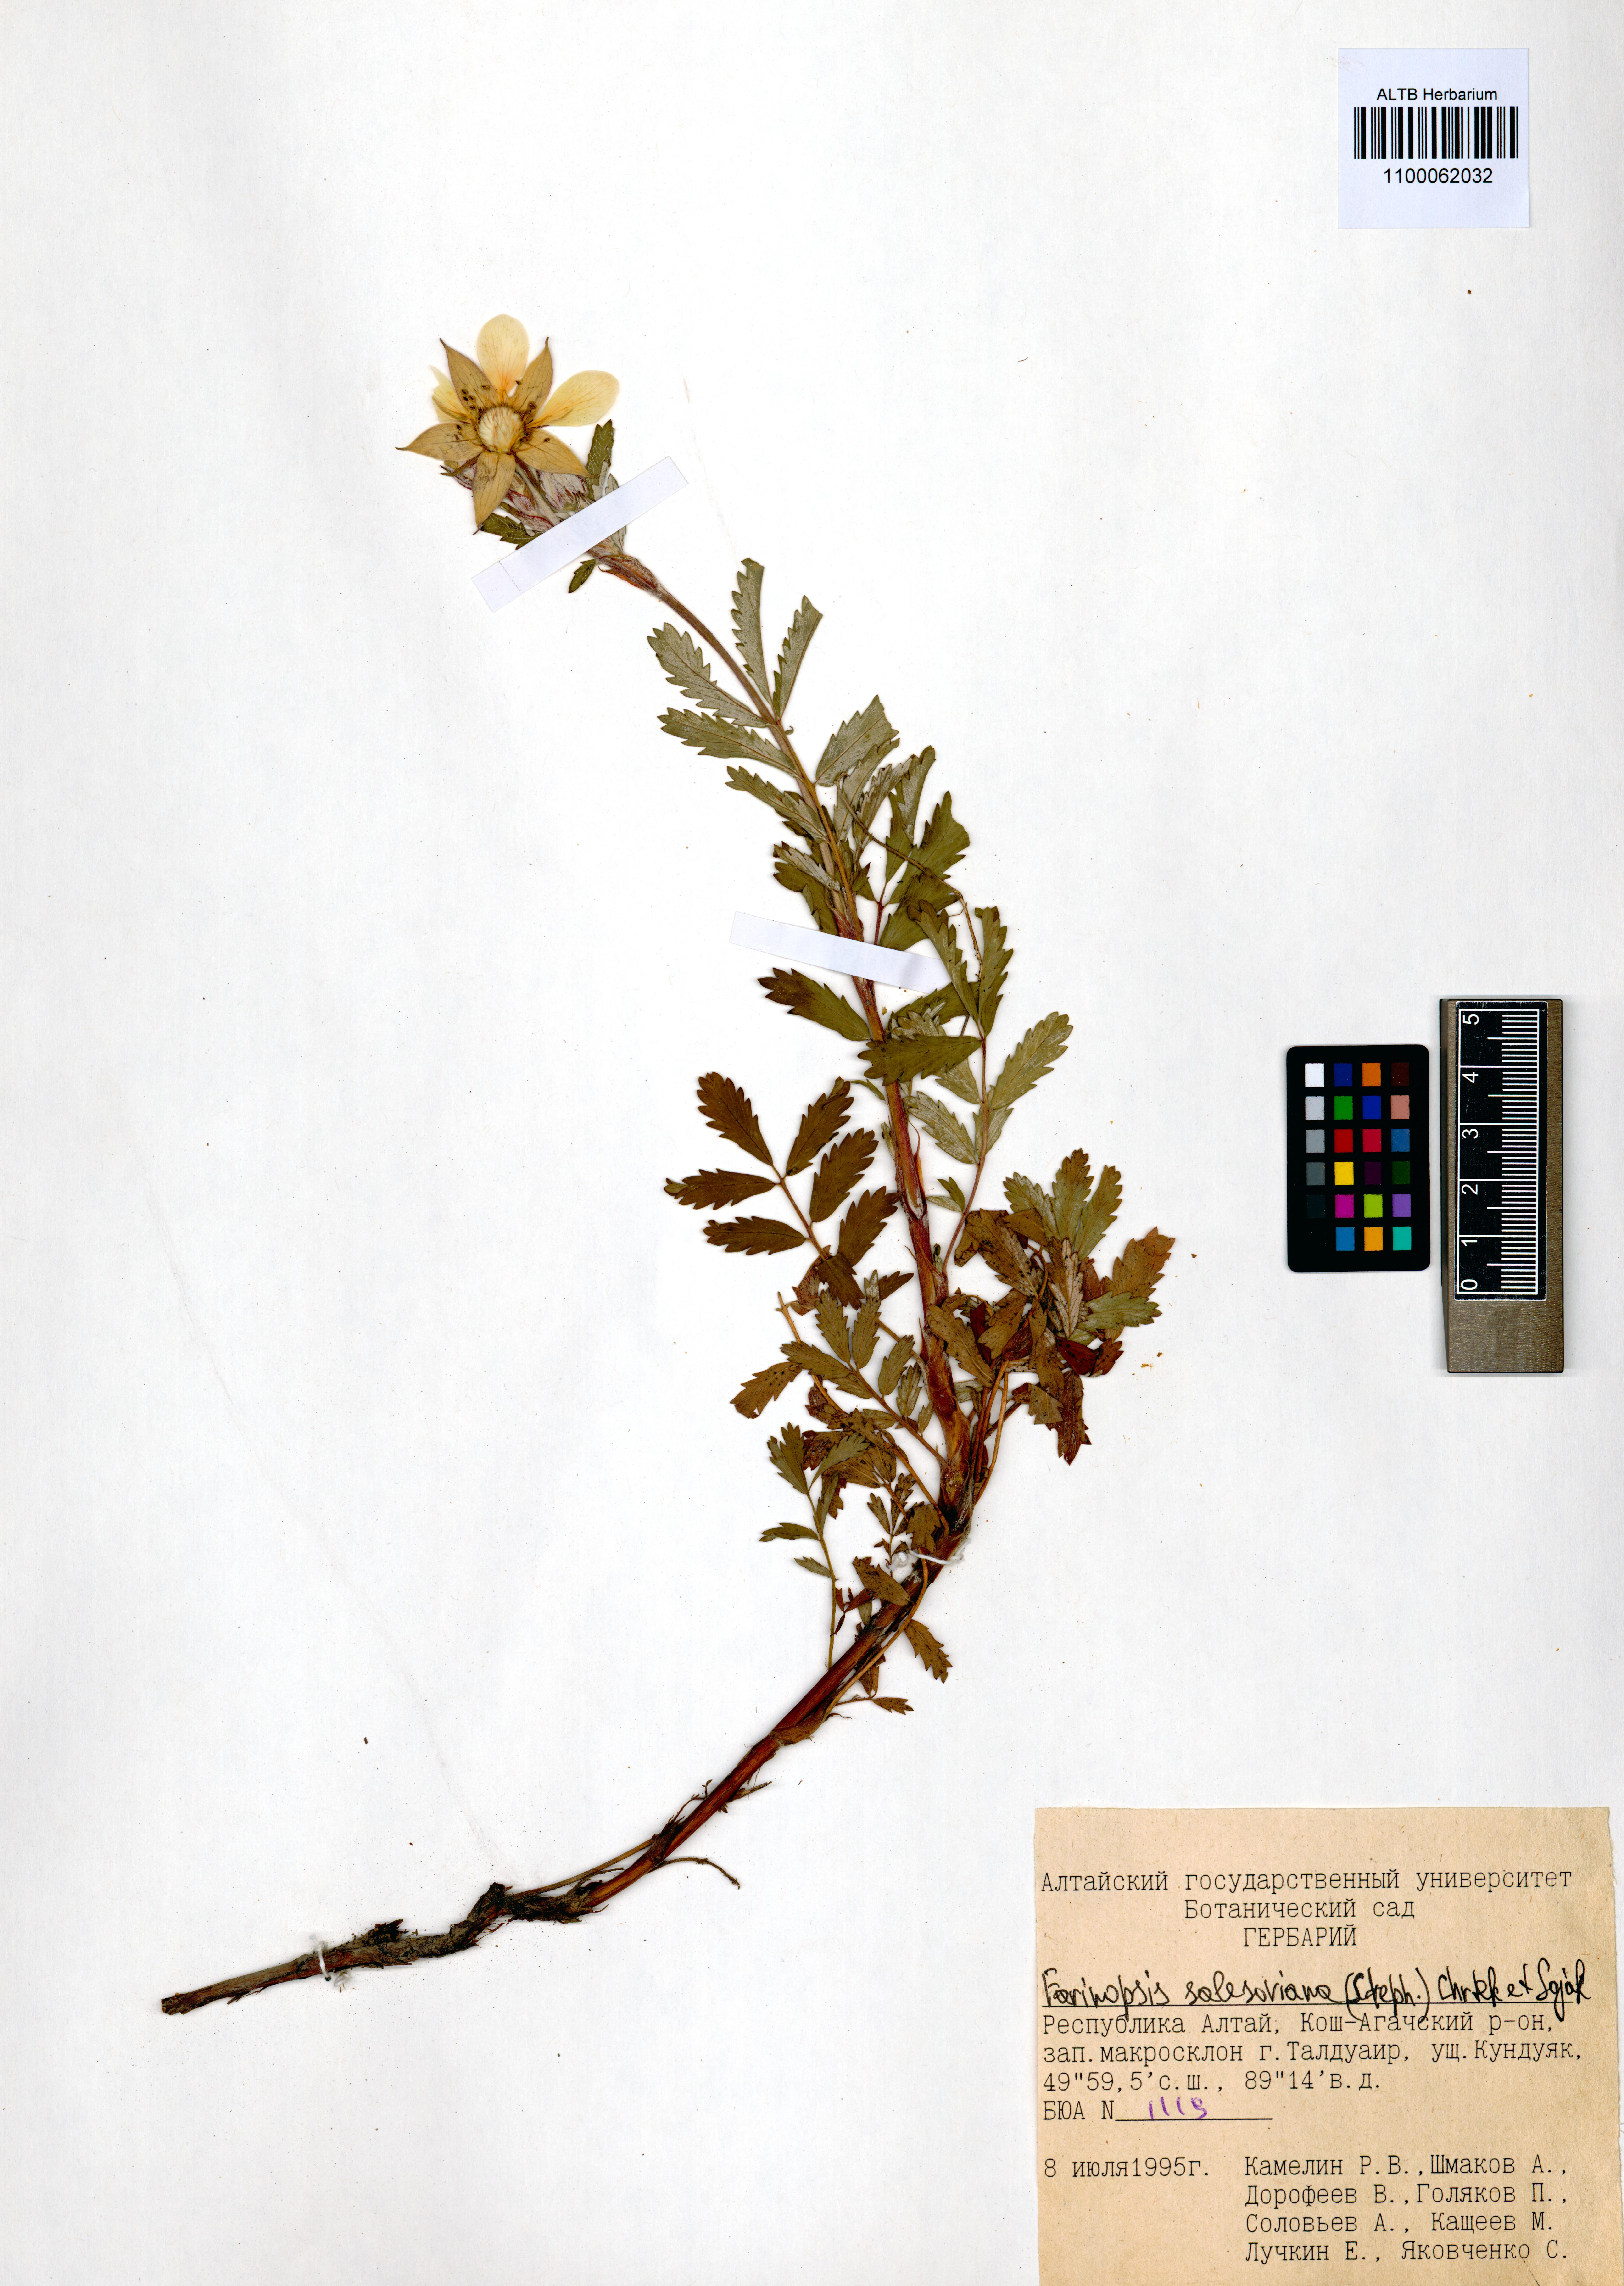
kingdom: Plantae
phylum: Tracheophyta
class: Magnoliopsida
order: Rosales
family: Rosaceae
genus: Farinopsis
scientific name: Farinopsis salesoviana
